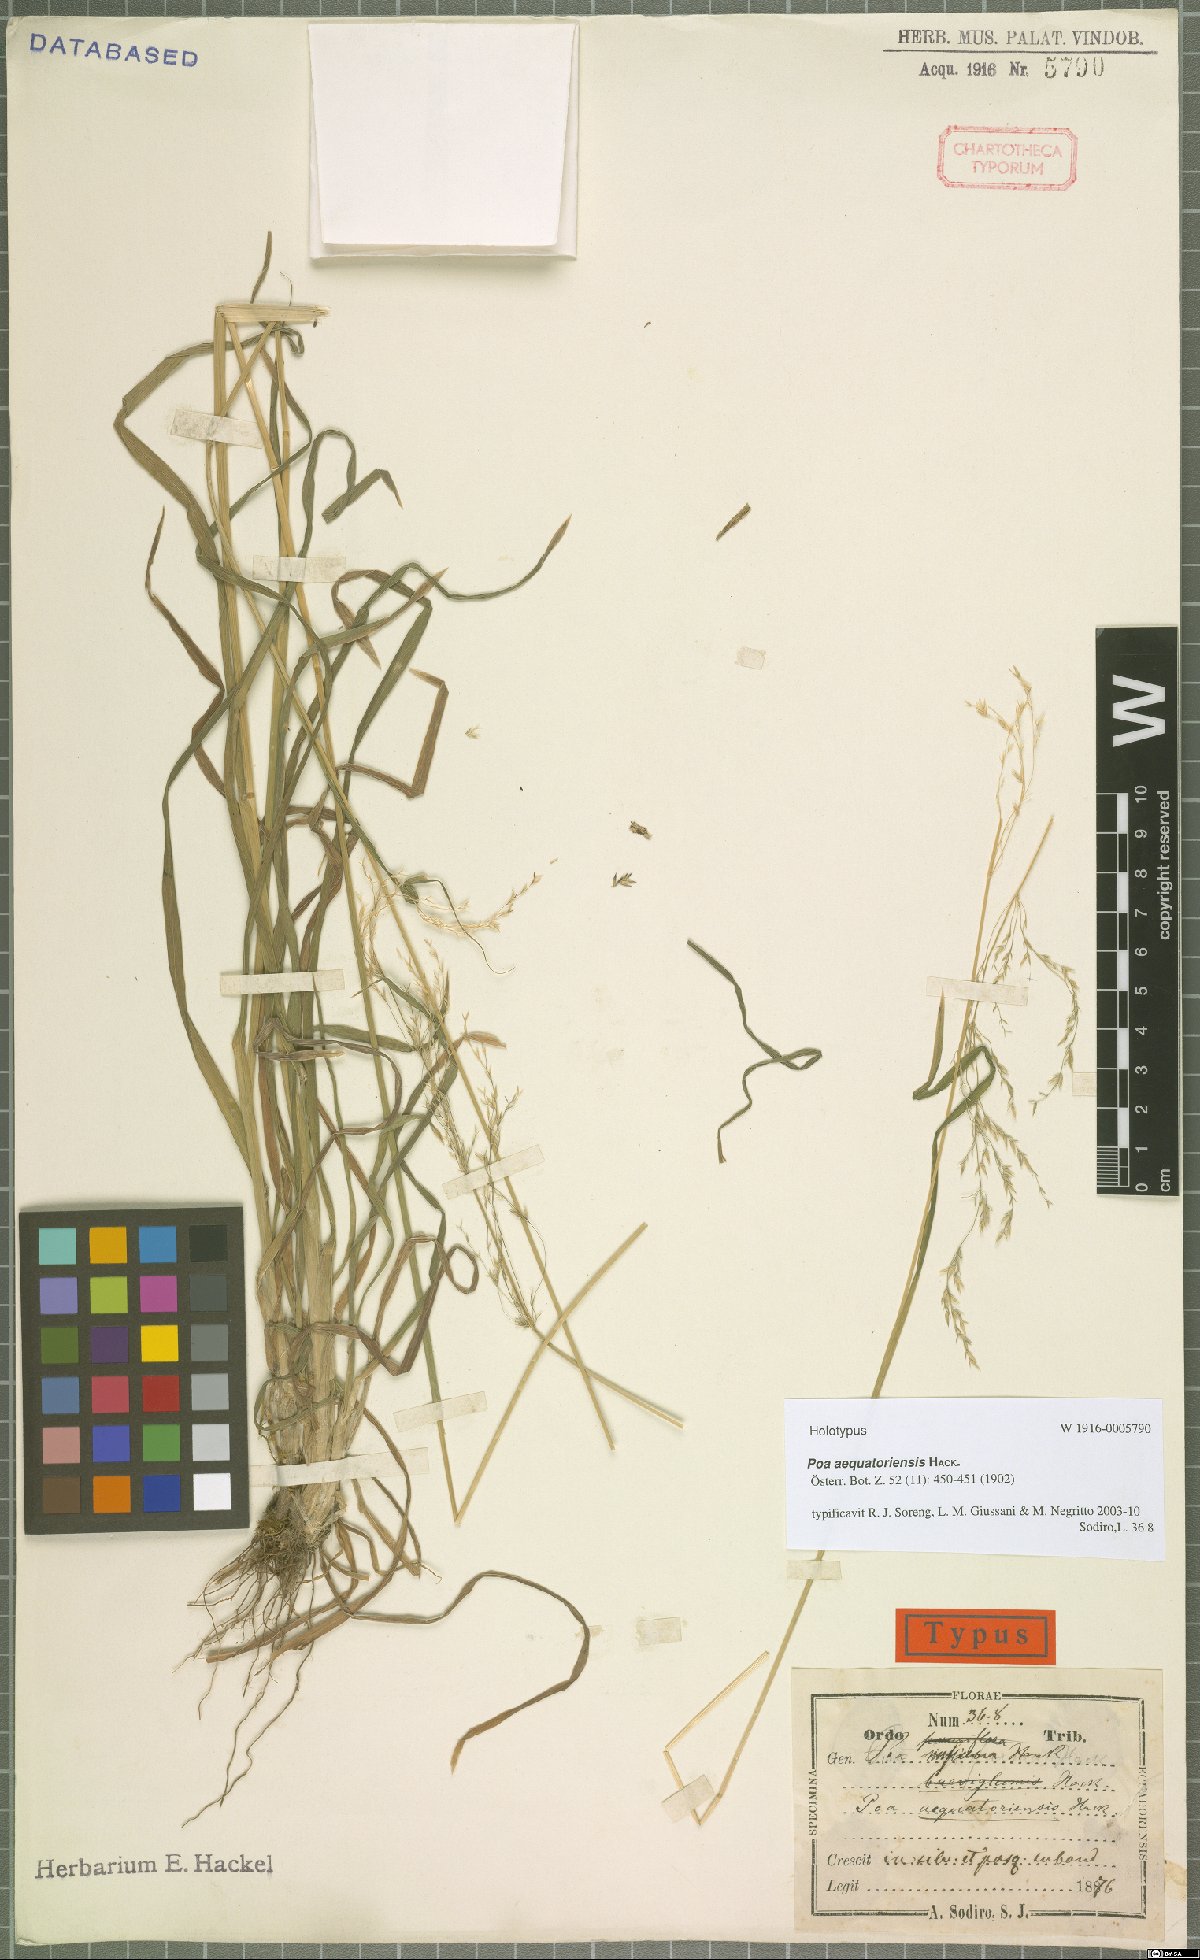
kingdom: Plantae
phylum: Tracheophyta
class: Liliopsida
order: Poales
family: Poaceae
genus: Poa
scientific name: Poa aequatoriensis
